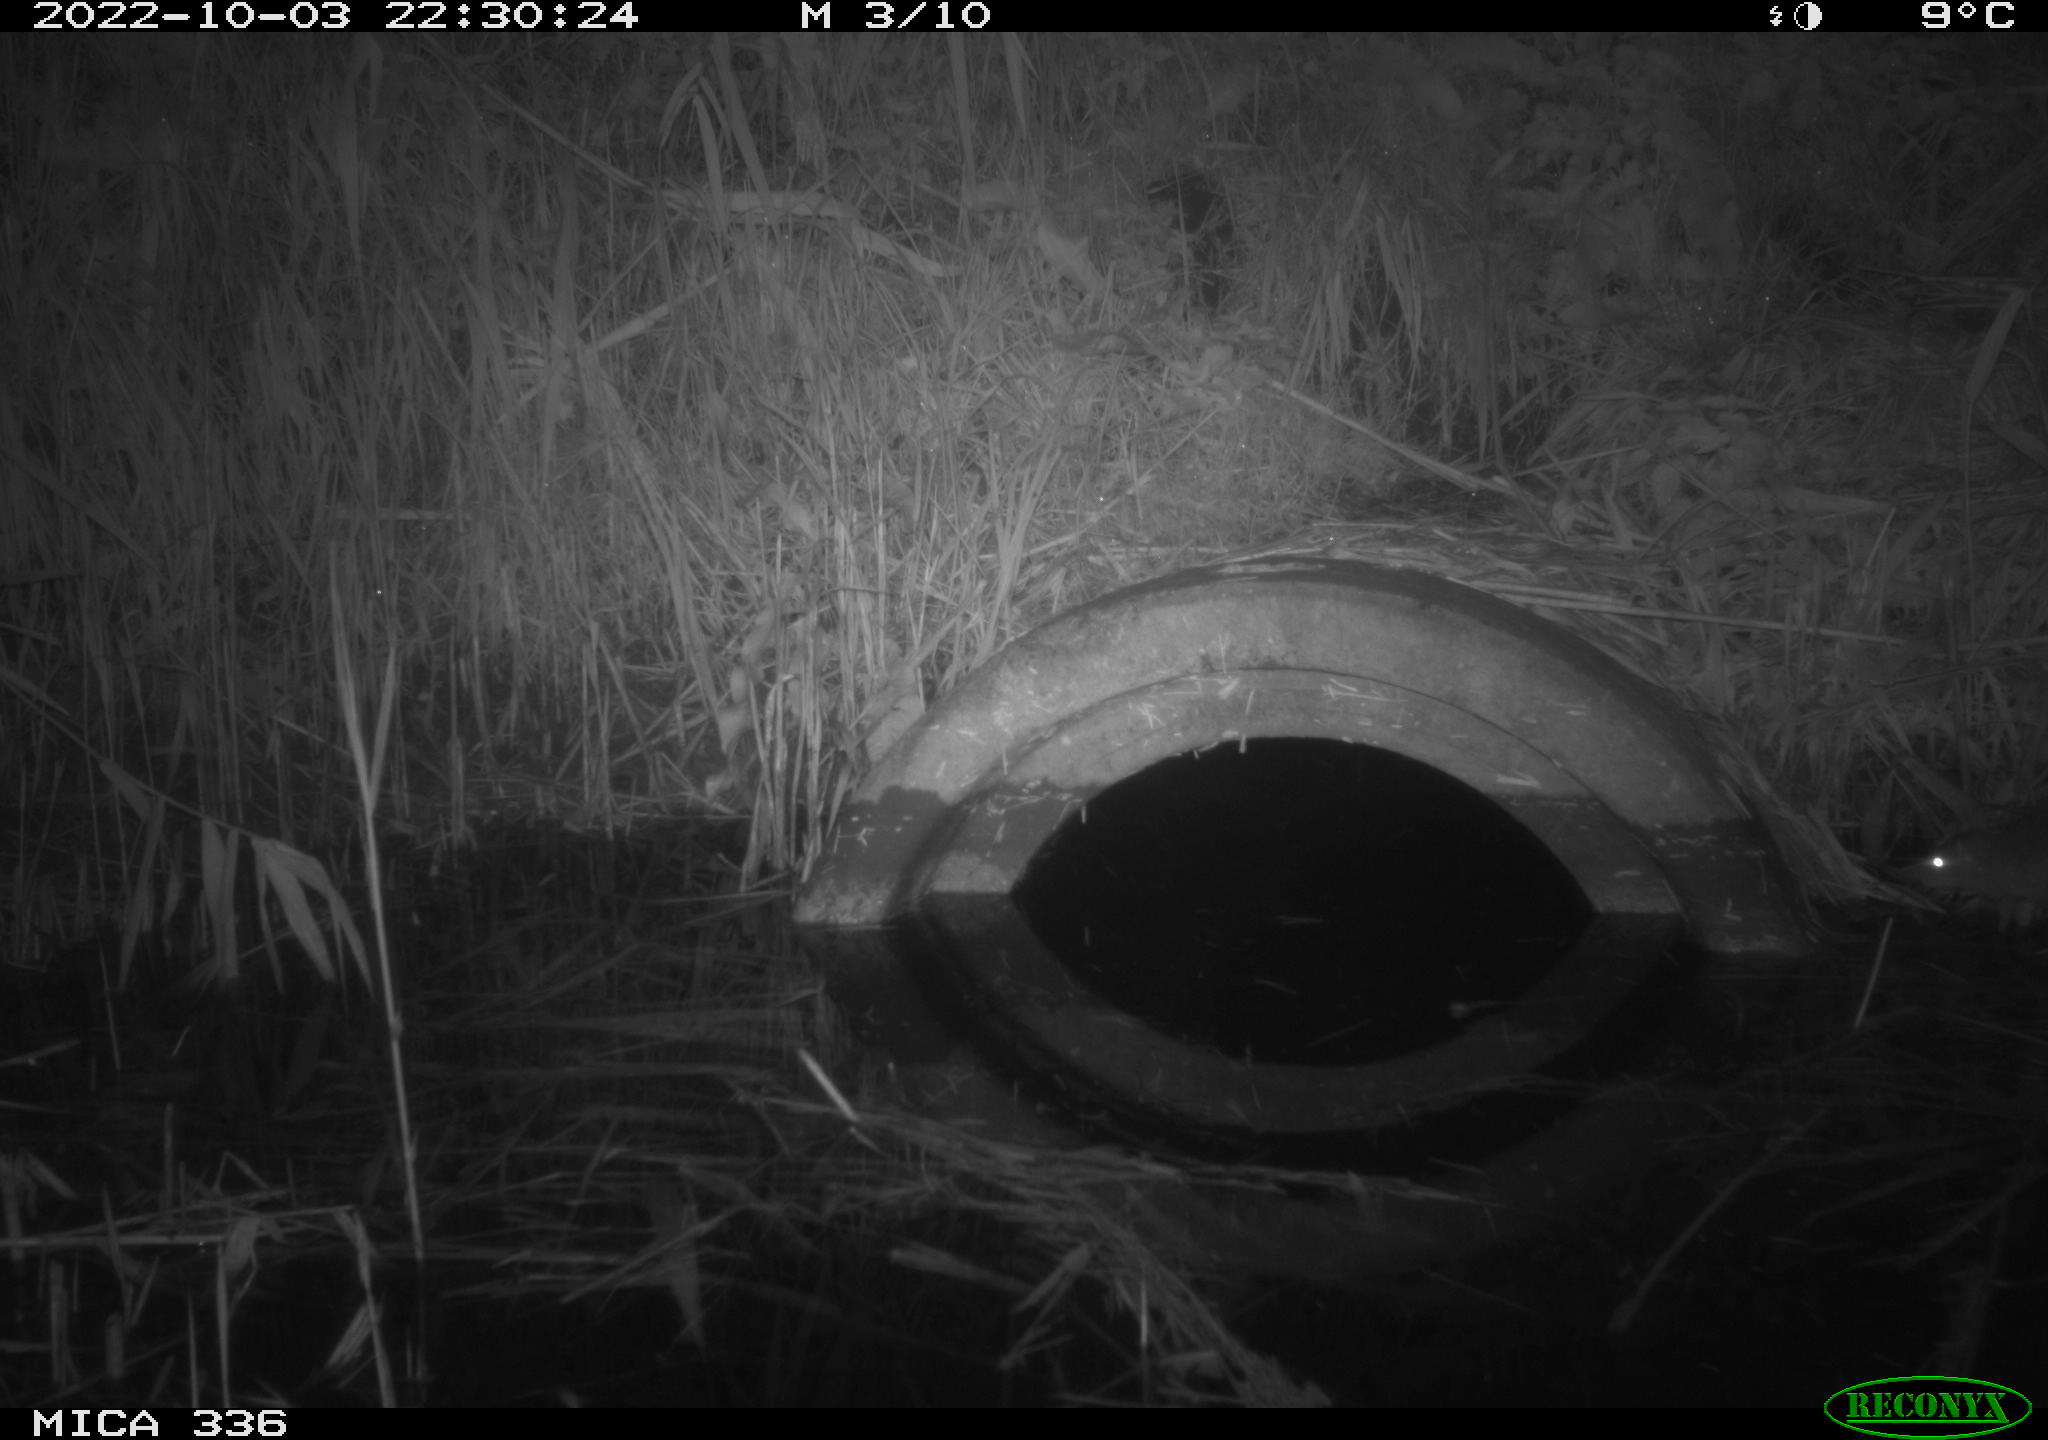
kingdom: Animalia
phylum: Chordata
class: Mammalia
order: Rodentia
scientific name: Rodentia
